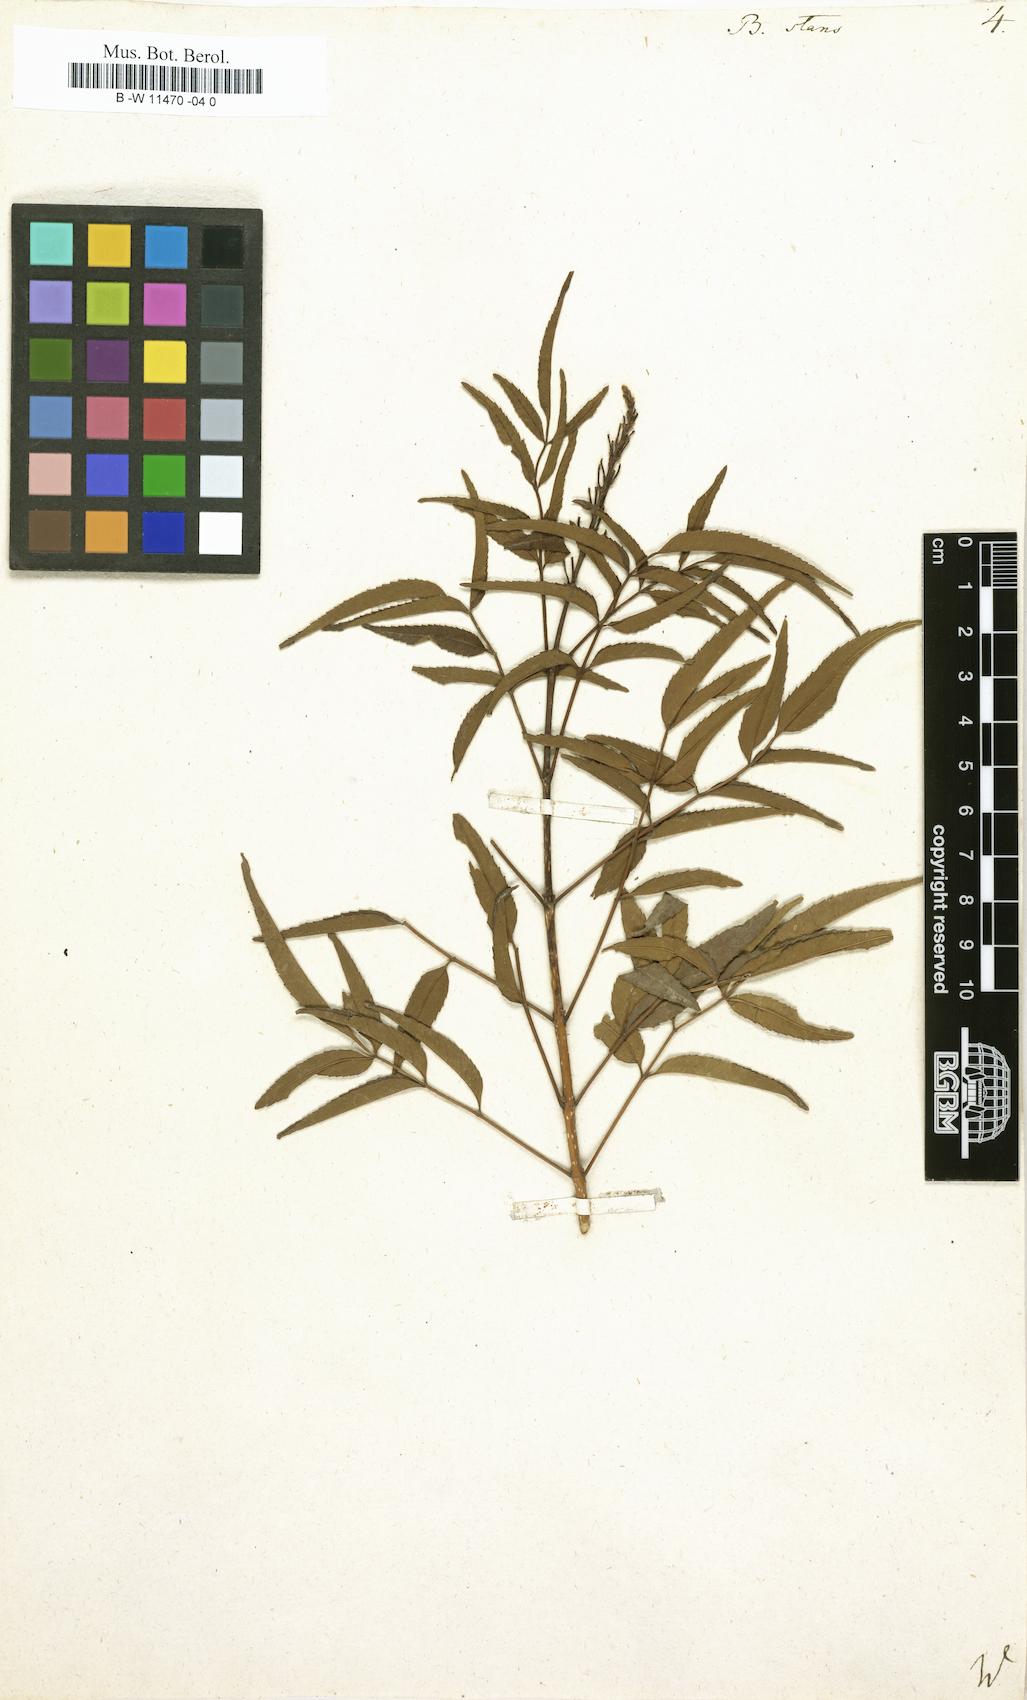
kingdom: Plantae
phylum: Tracheophyta
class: Magnoliopsida
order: Lamiales
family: Bignoniaceae
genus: Tecoma
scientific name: Tecoma stans
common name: Yellow trumpetbush
